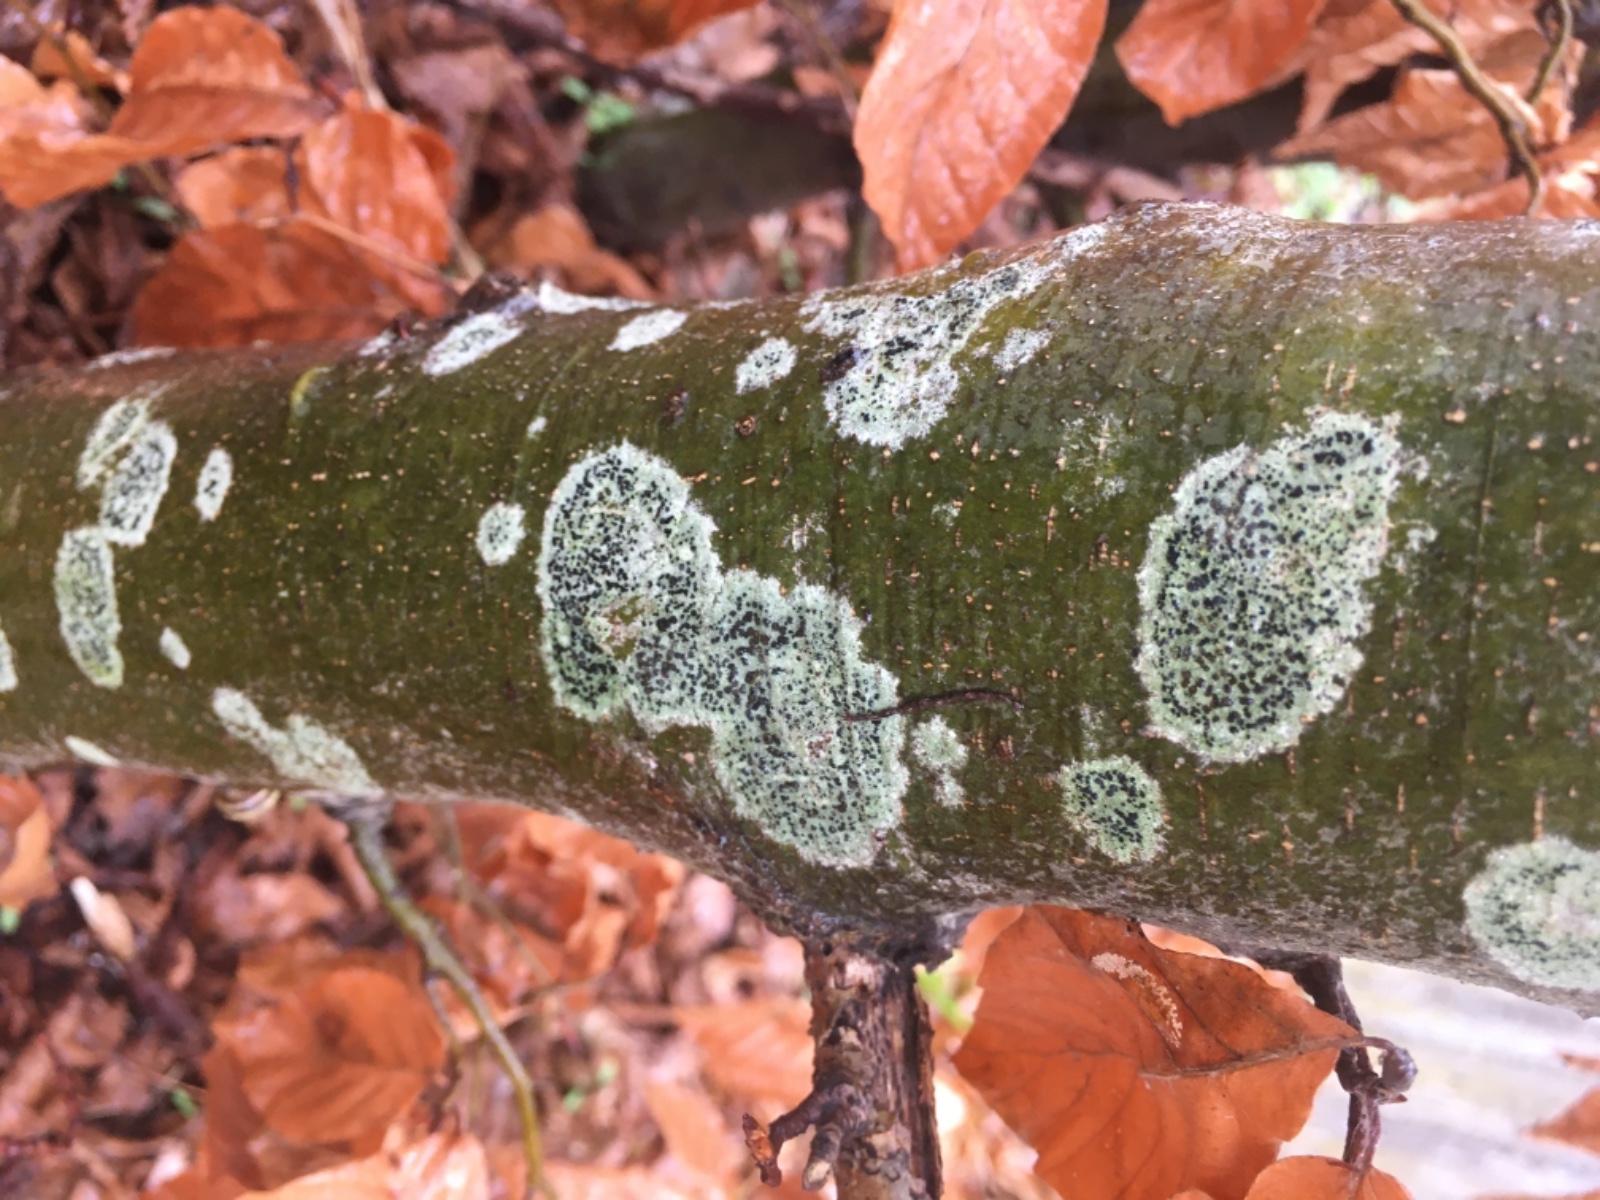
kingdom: Fungi
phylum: Ascomycota
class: Lecanoromycetes
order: Lecanorales
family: Lecanoraceae
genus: Lecidella
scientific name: Lecidella elaeochroma
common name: grågrøn skivelav
